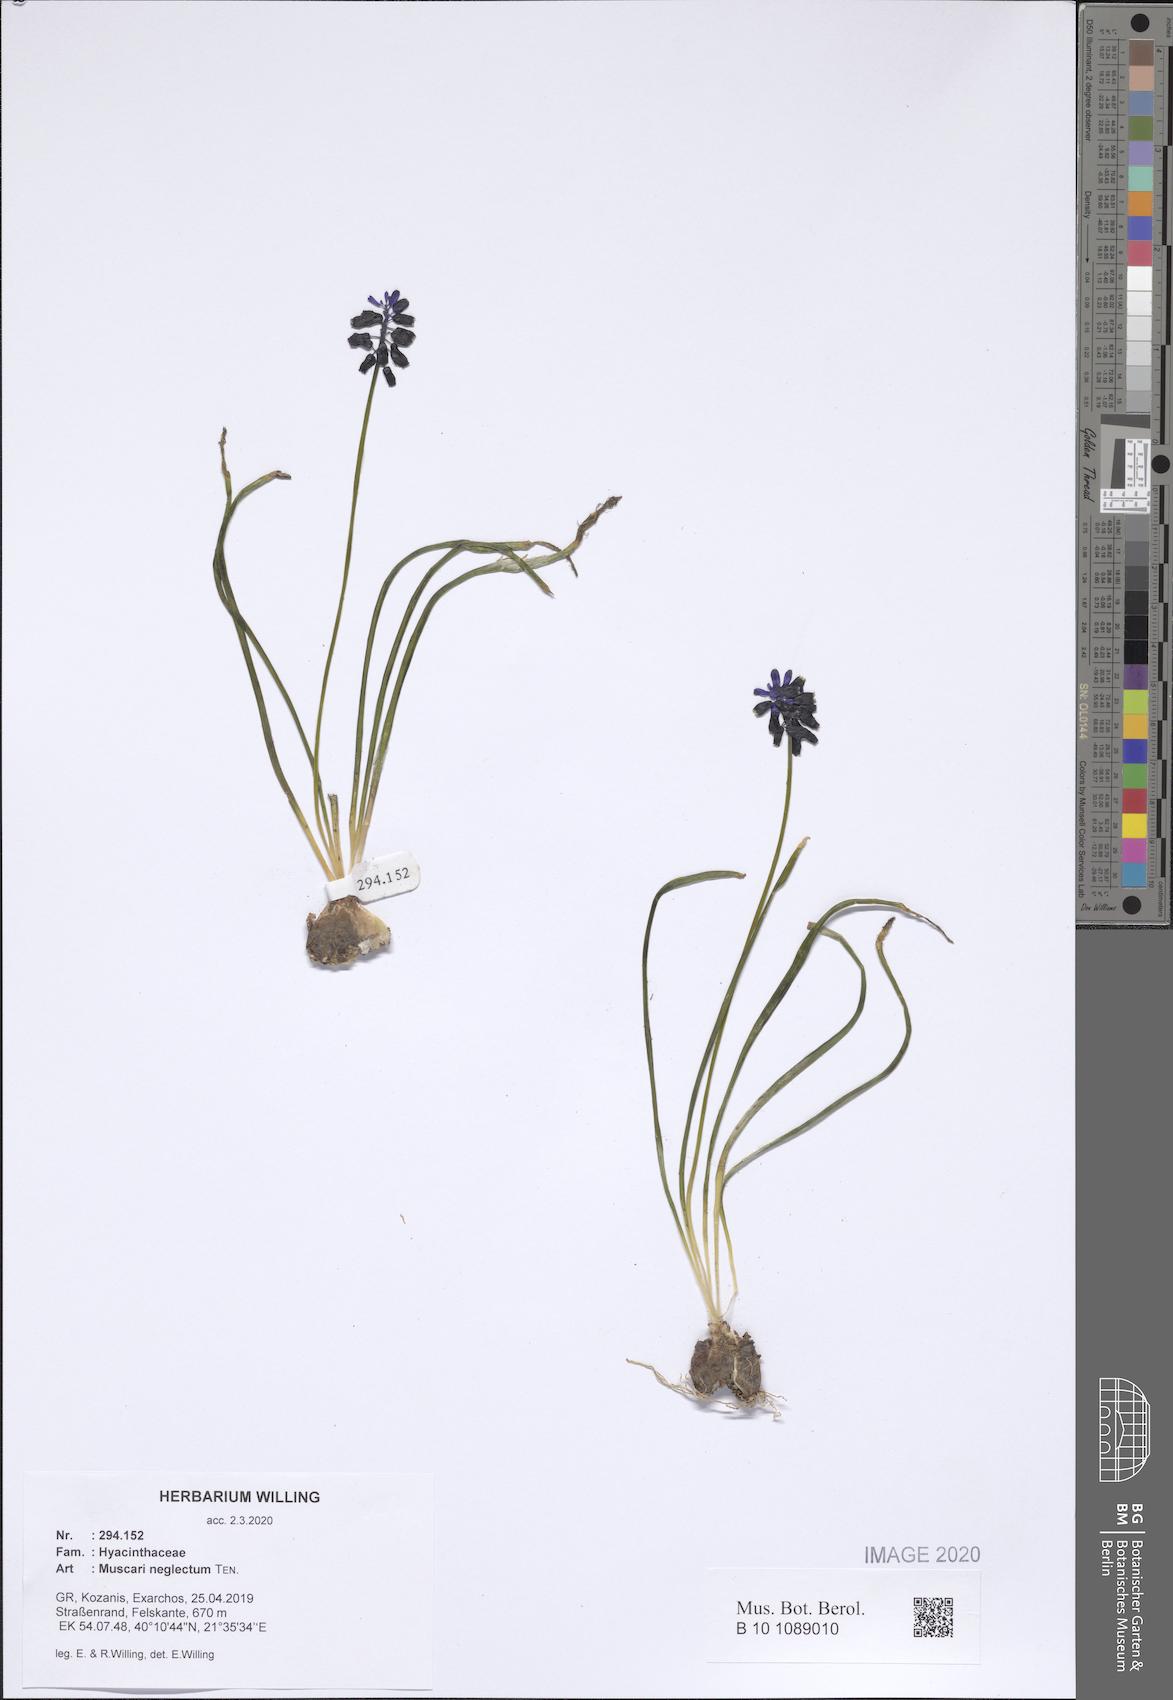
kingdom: Plantae
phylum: Tracheophyta
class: Liliopsida
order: Asparagales
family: Asparagaceae
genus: Muscari
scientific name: Muscari neglectum
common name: Grape-hyacinth
